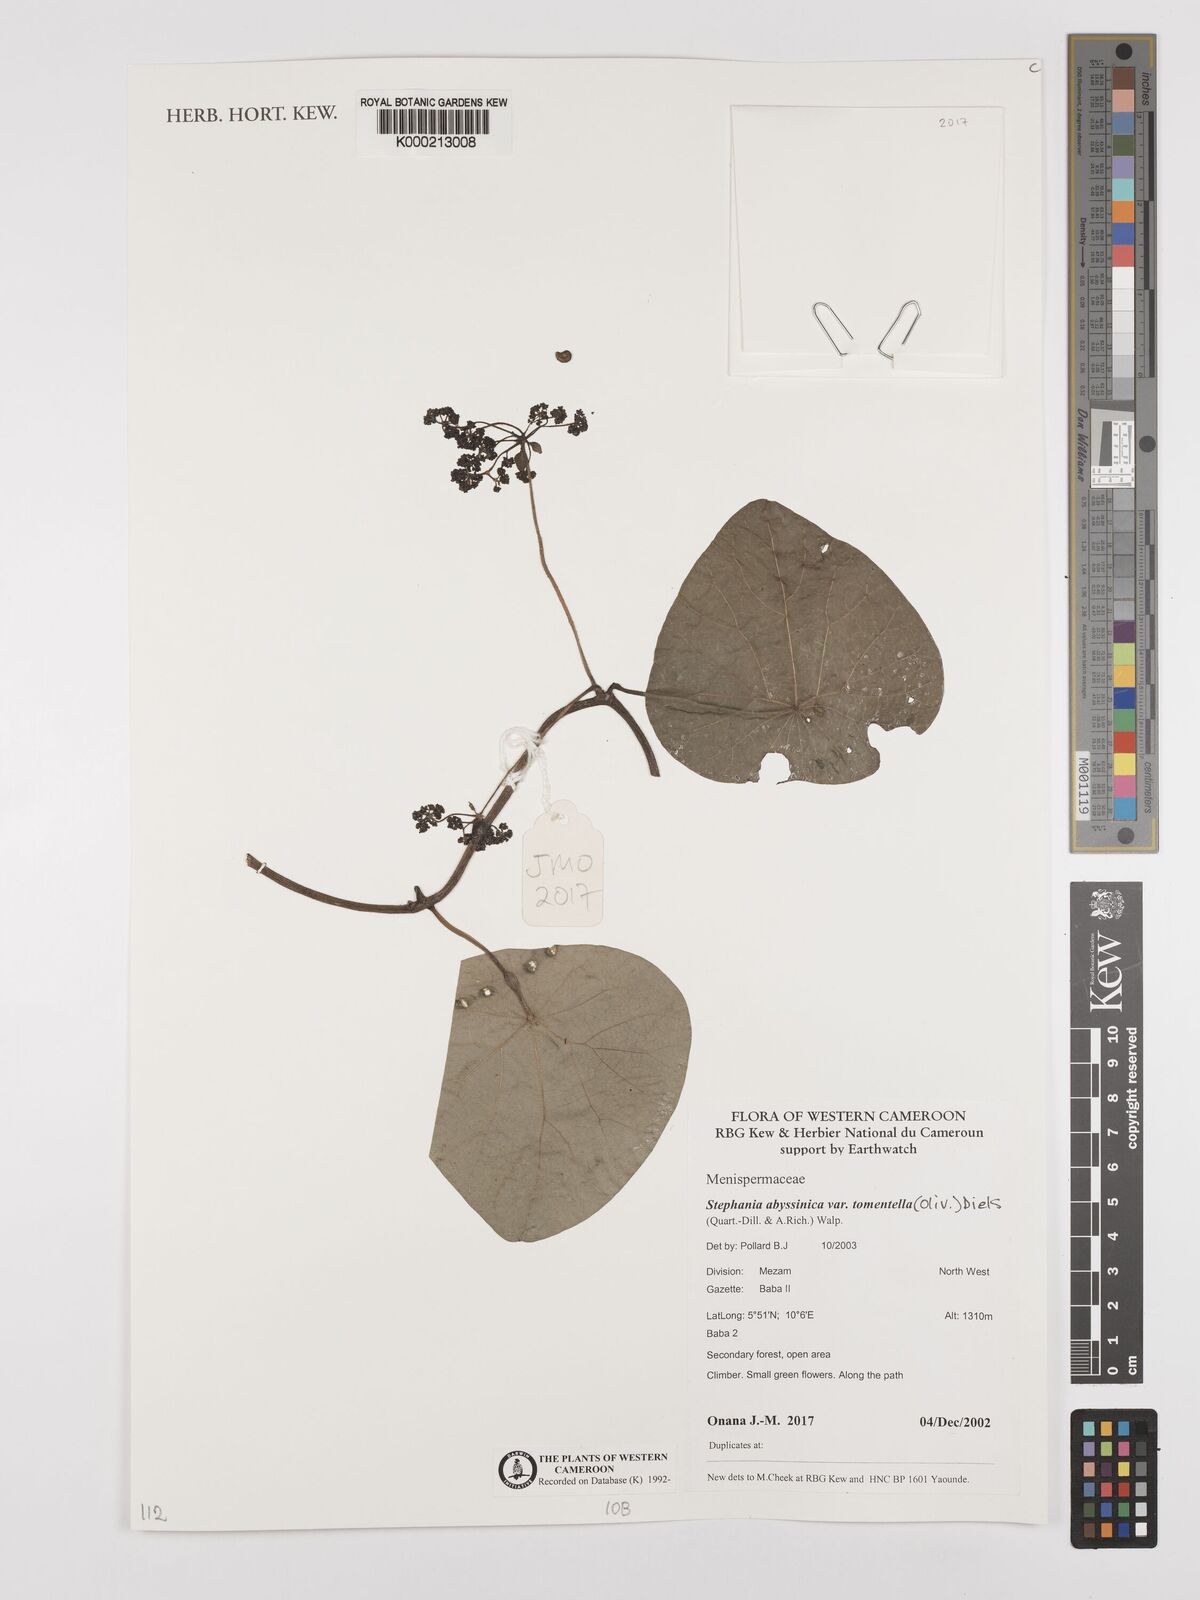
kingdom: Plantae
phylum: Tracheophyta
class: Magnoliopsida
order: Ranunculales
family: Menispermaceae
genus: Stephania
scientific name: Stephania
